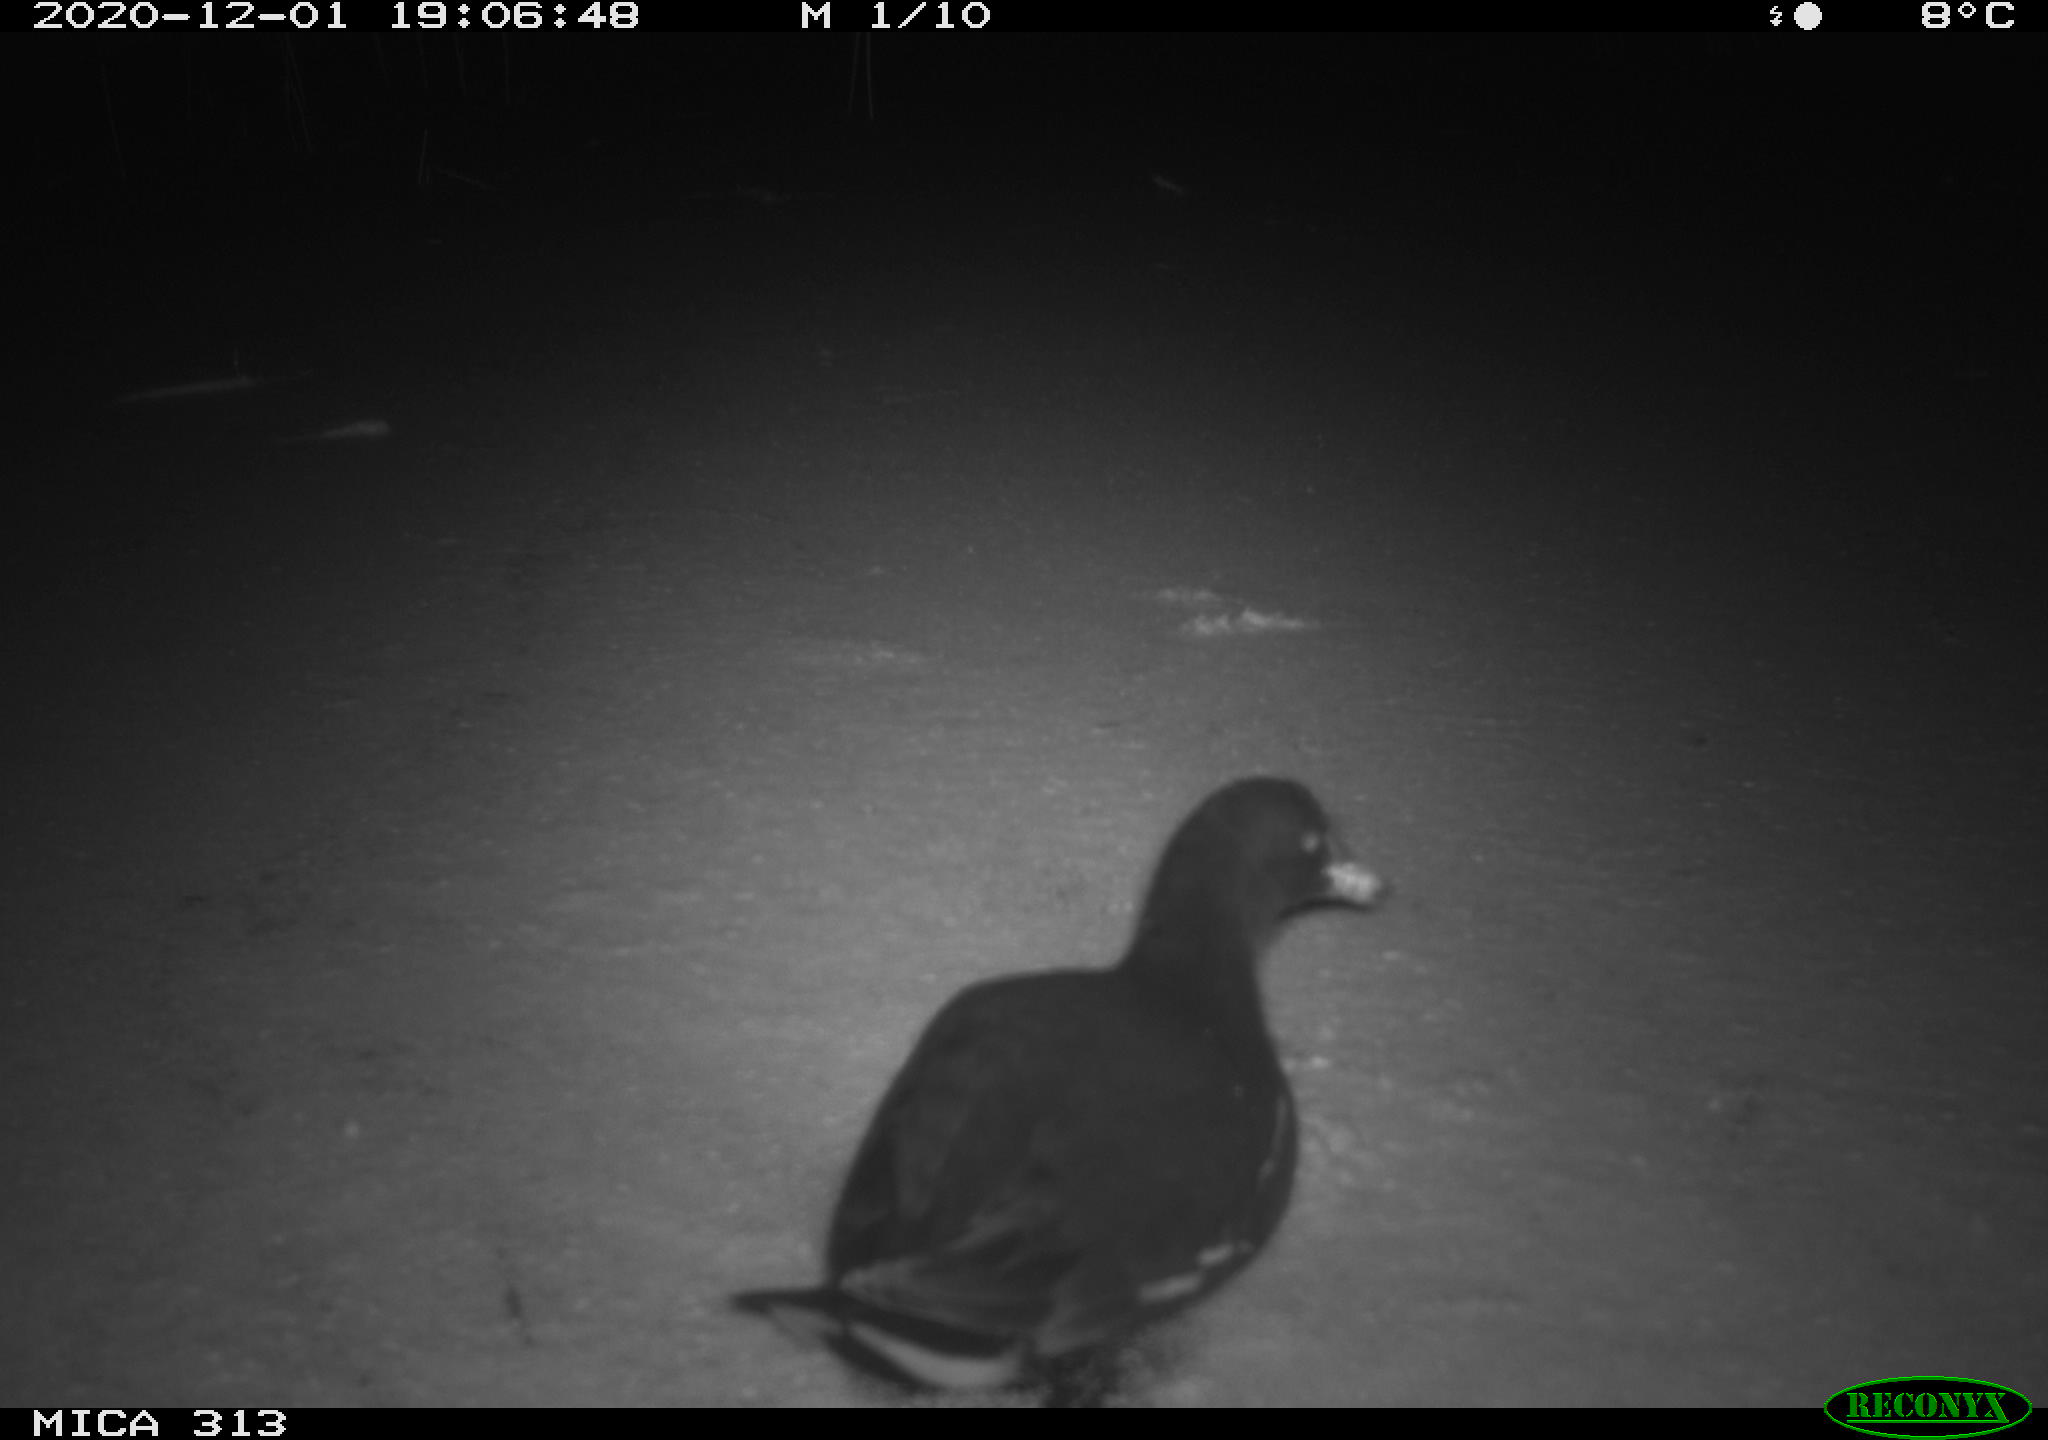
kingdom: Animalia
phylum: Chordata
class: Aves
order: Gruiformes
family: Rallidae
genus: Fulica
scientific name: Fulica atra
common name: Eurasian coot
